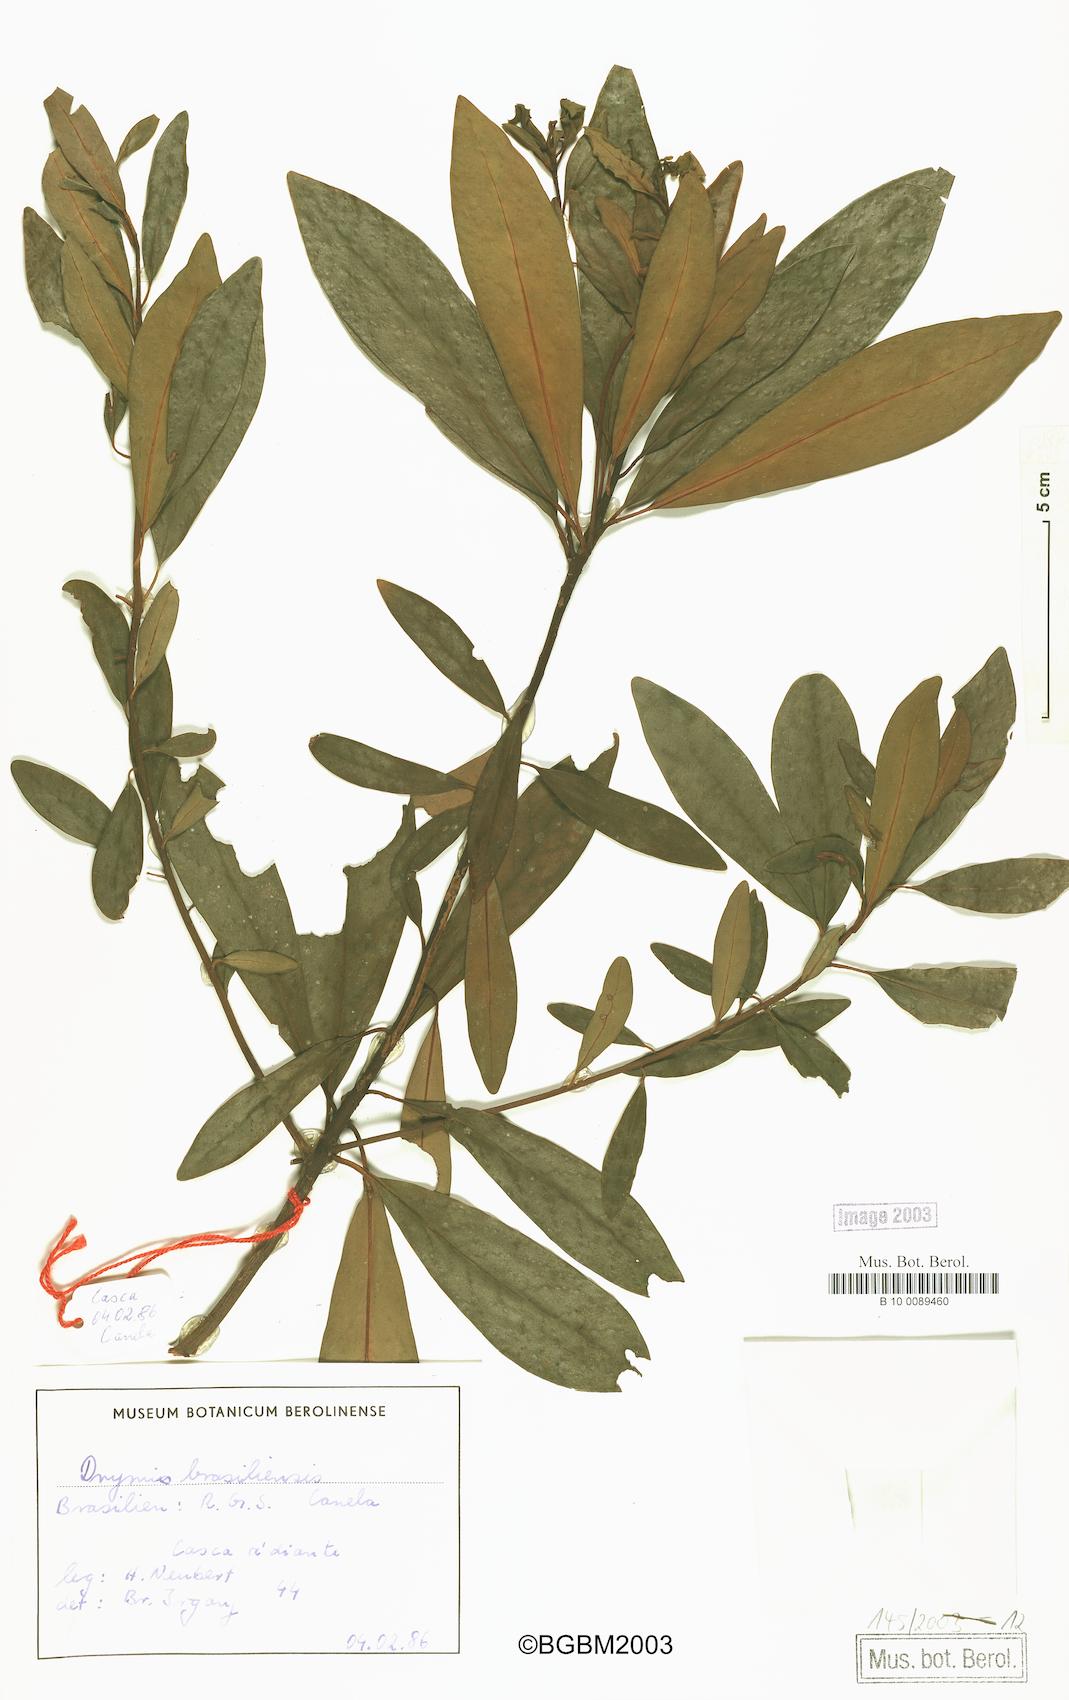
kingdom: Plantae
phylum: Tracheophyta
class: Magnoliopsida
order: Canellales
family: Winteraceae
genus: Drimys
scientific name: Drimys brasiliensis
